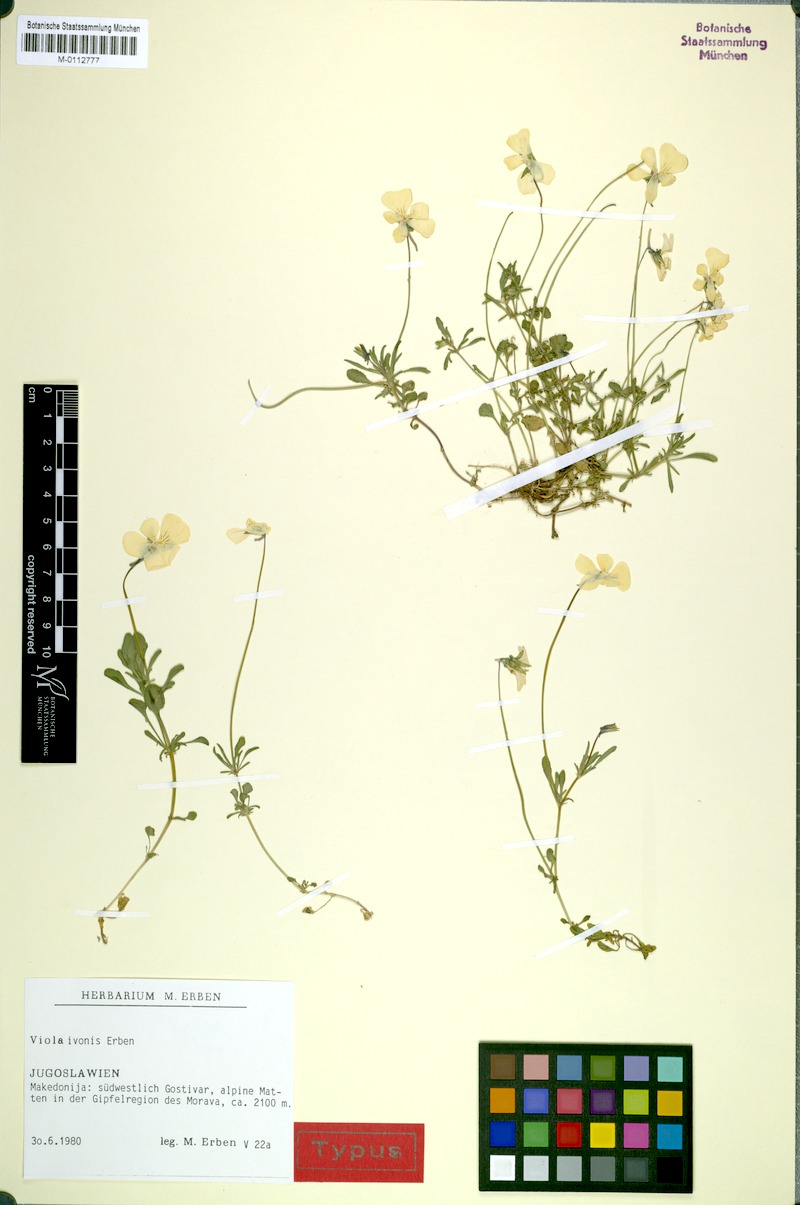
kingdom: Plantae
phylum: Tracheophyta
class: Magnoliopsida
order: Malpighiales
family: Violaceae
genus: Viola
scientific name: Viola ivonis
